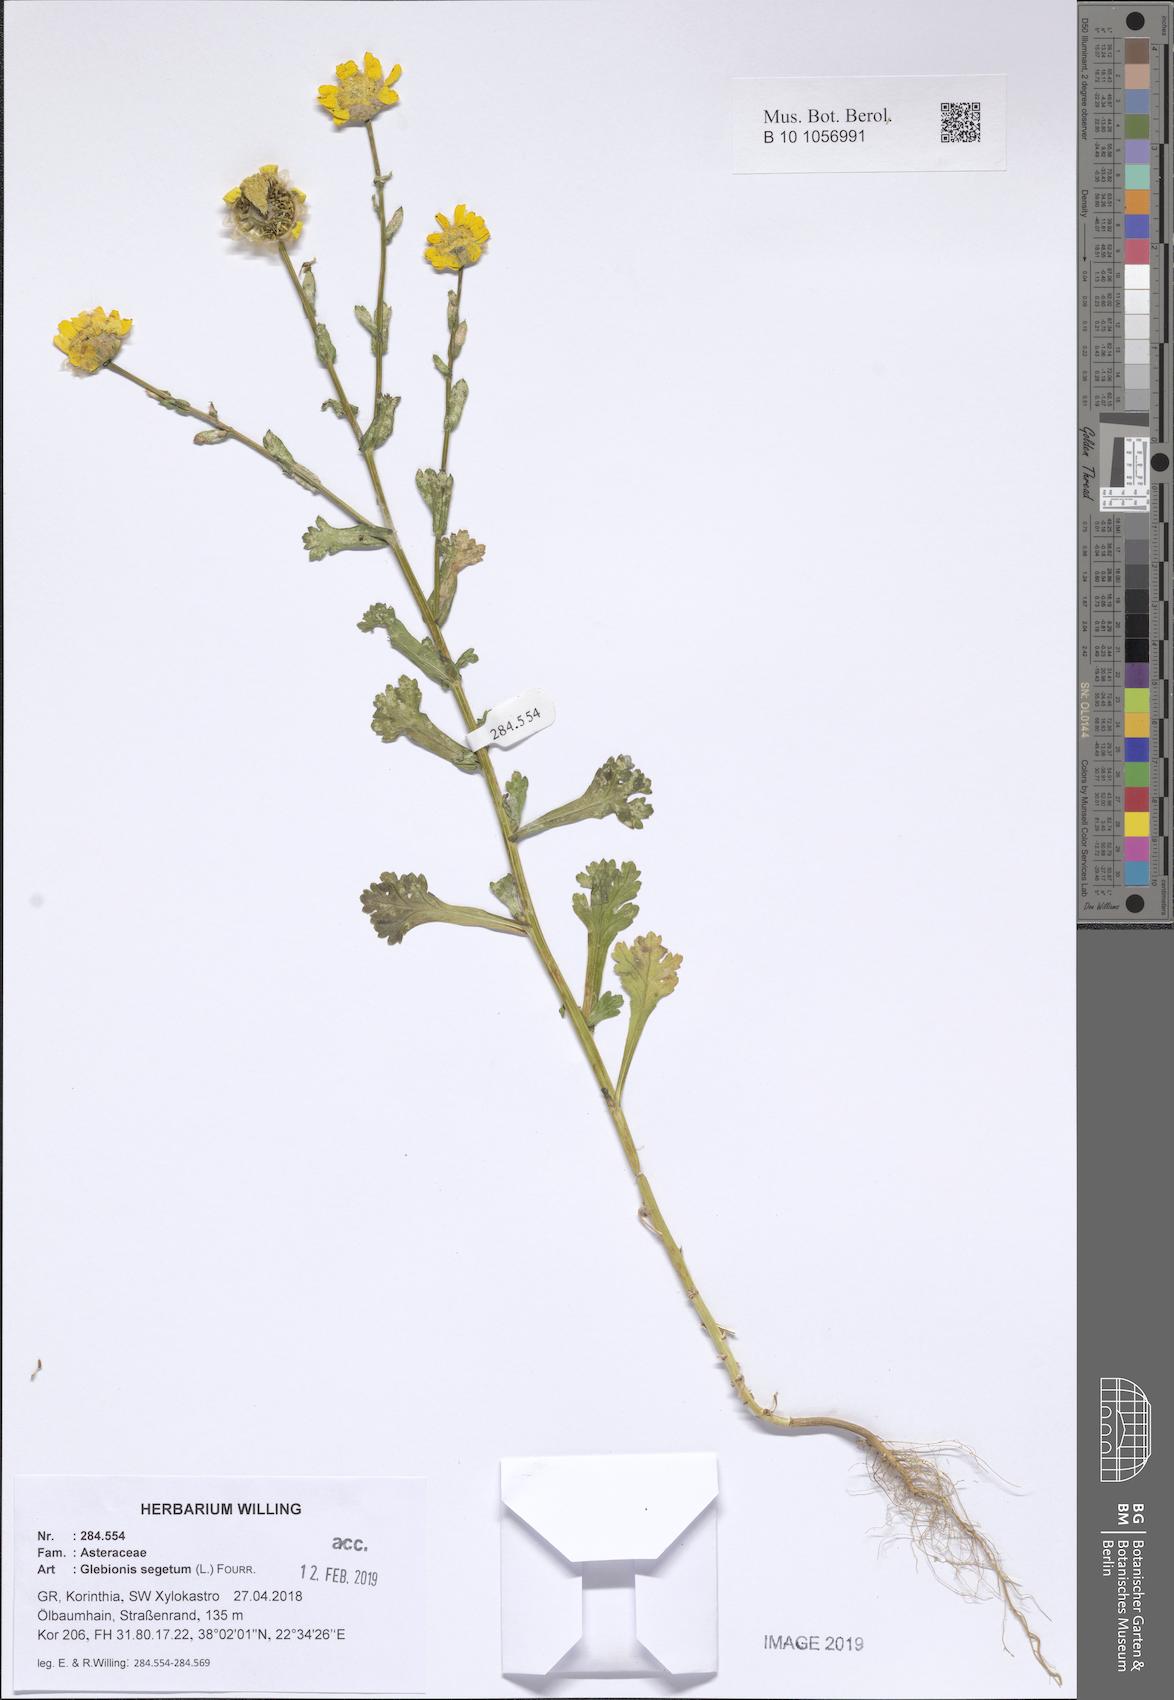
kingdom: Plantae
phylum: Tracheophyta
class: Magnoliopsida
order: Asterales
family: Asteraceae
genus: Glebionis
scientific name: Glebionis segetum
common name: Corndaisy
